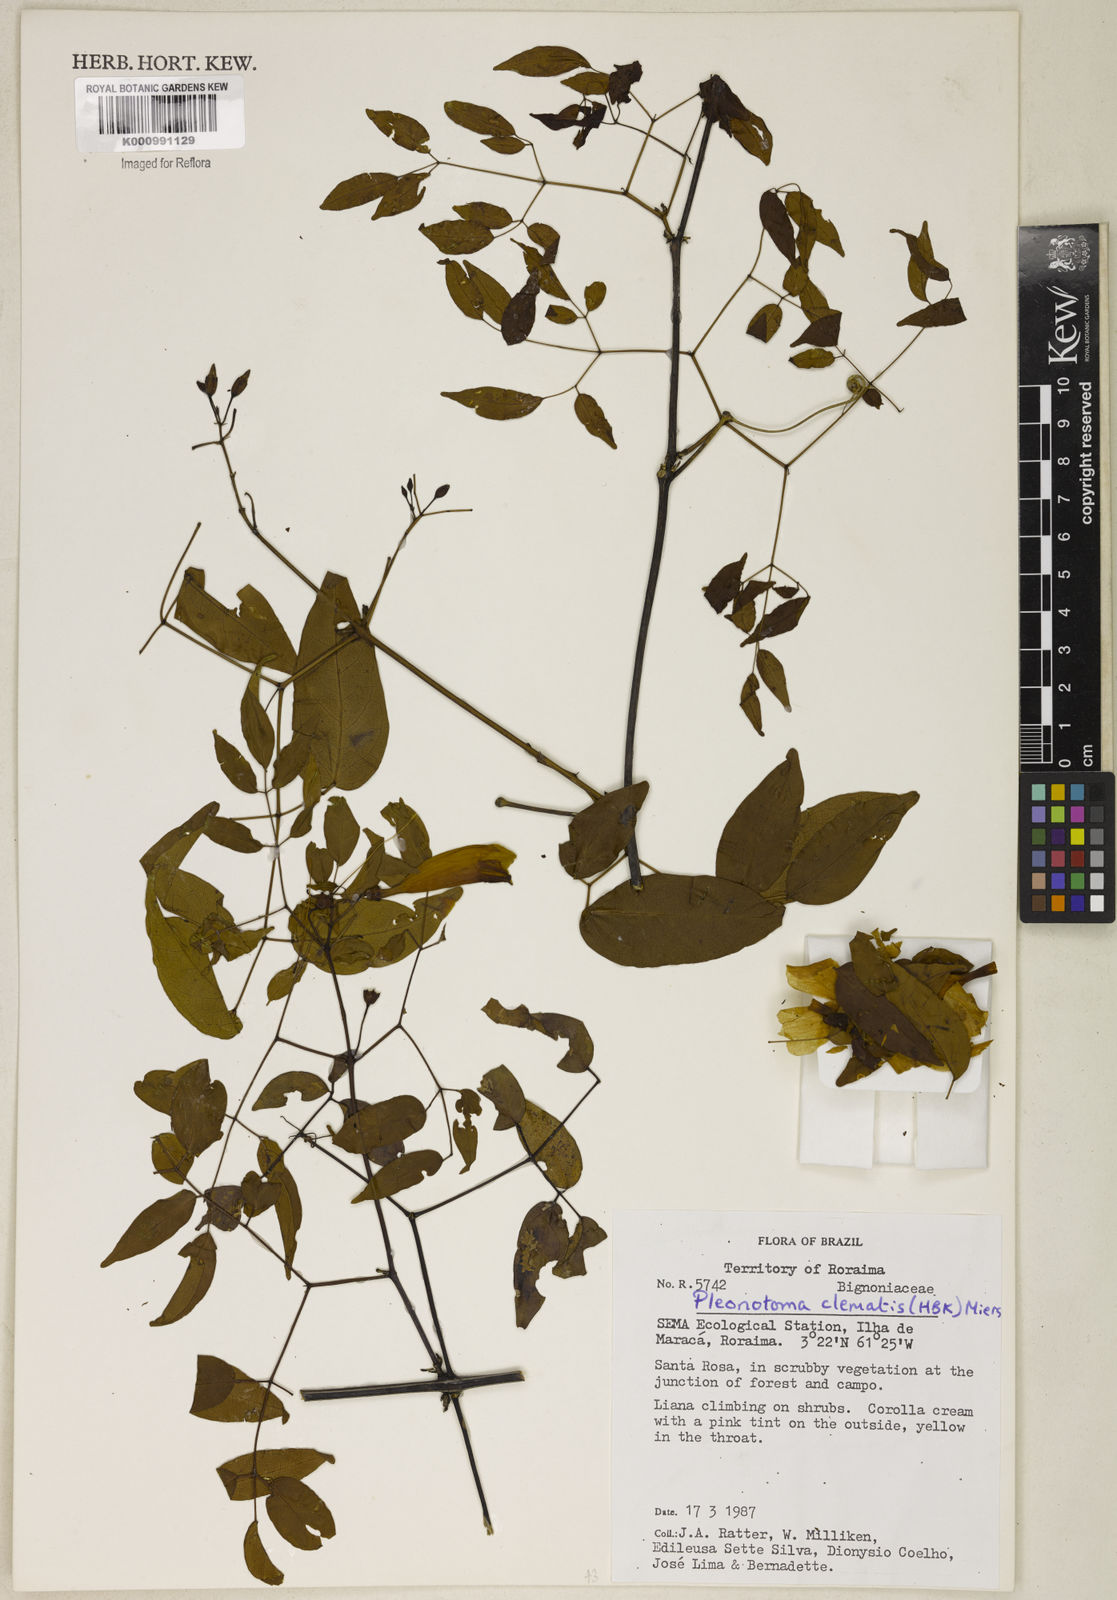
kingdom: Plantae
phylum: Tracheophyta
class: Magnoliopsida
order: Lamiales
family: Bignoniaceae
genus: Pleonotoma
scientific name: Pleonotoma clematis
